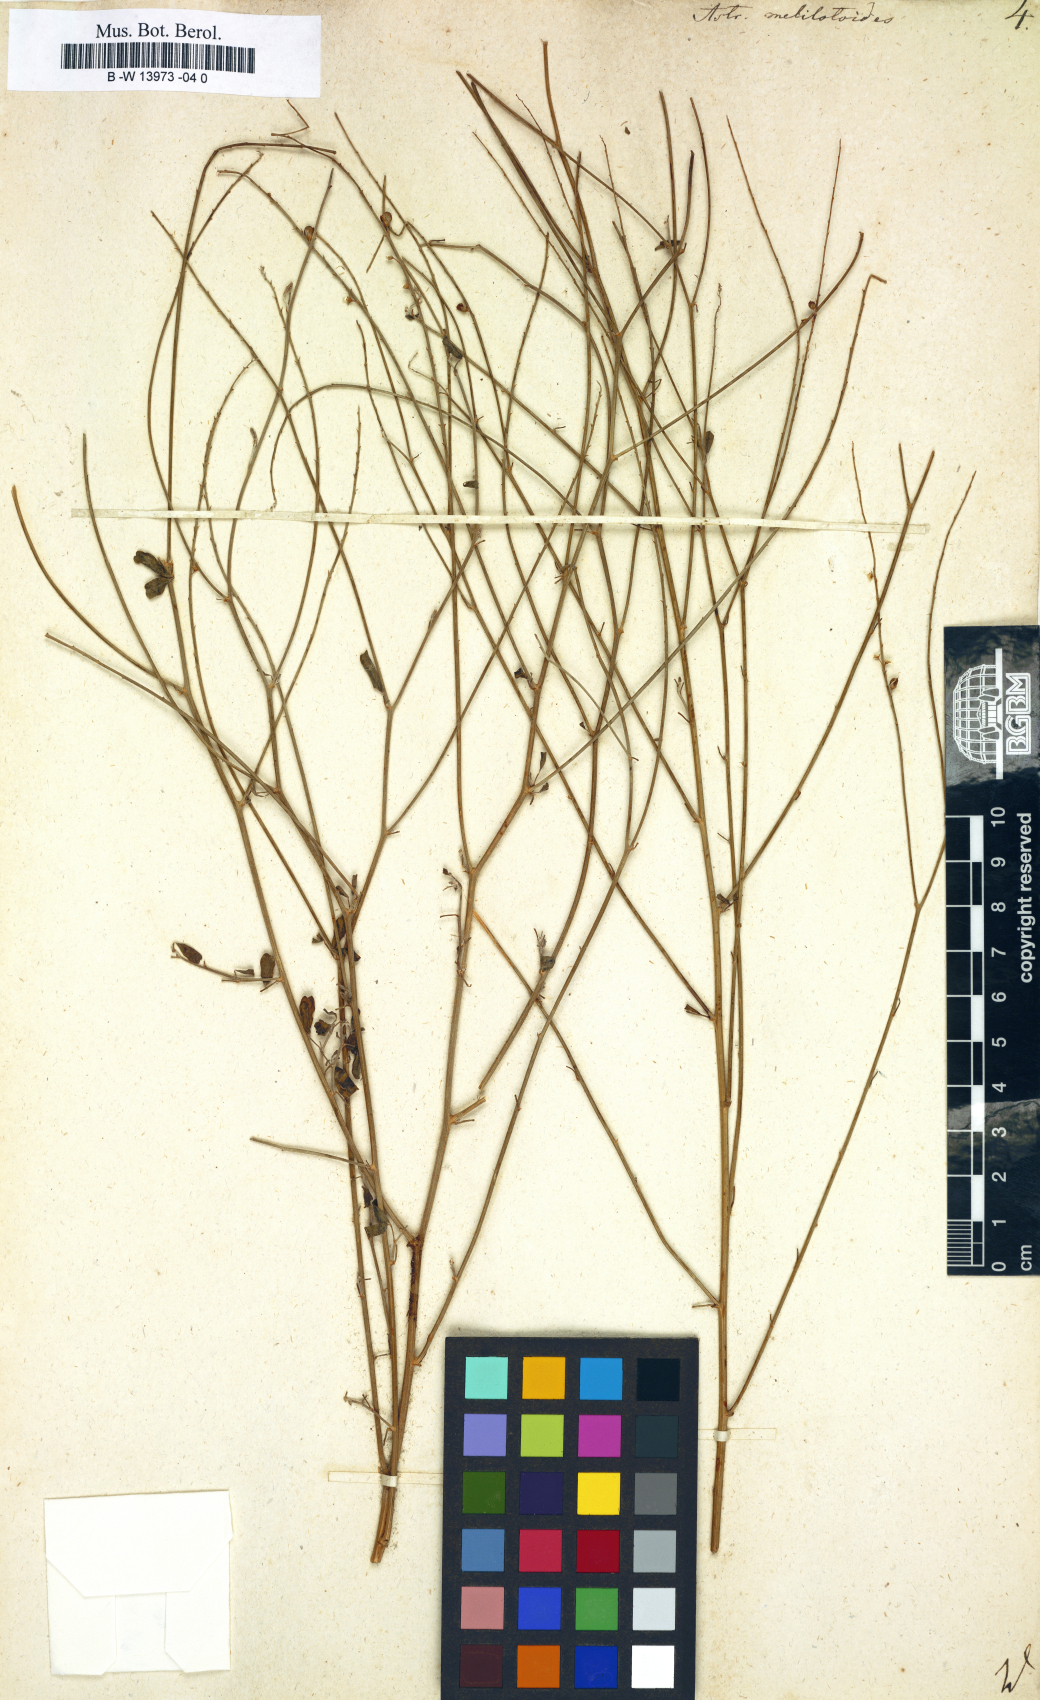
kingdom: Plantae
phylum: Tracheophyta
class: Magnoliopsida
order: Fabales
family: Fabaceae
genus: Astragalus
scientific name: Astragalus melilotoides
